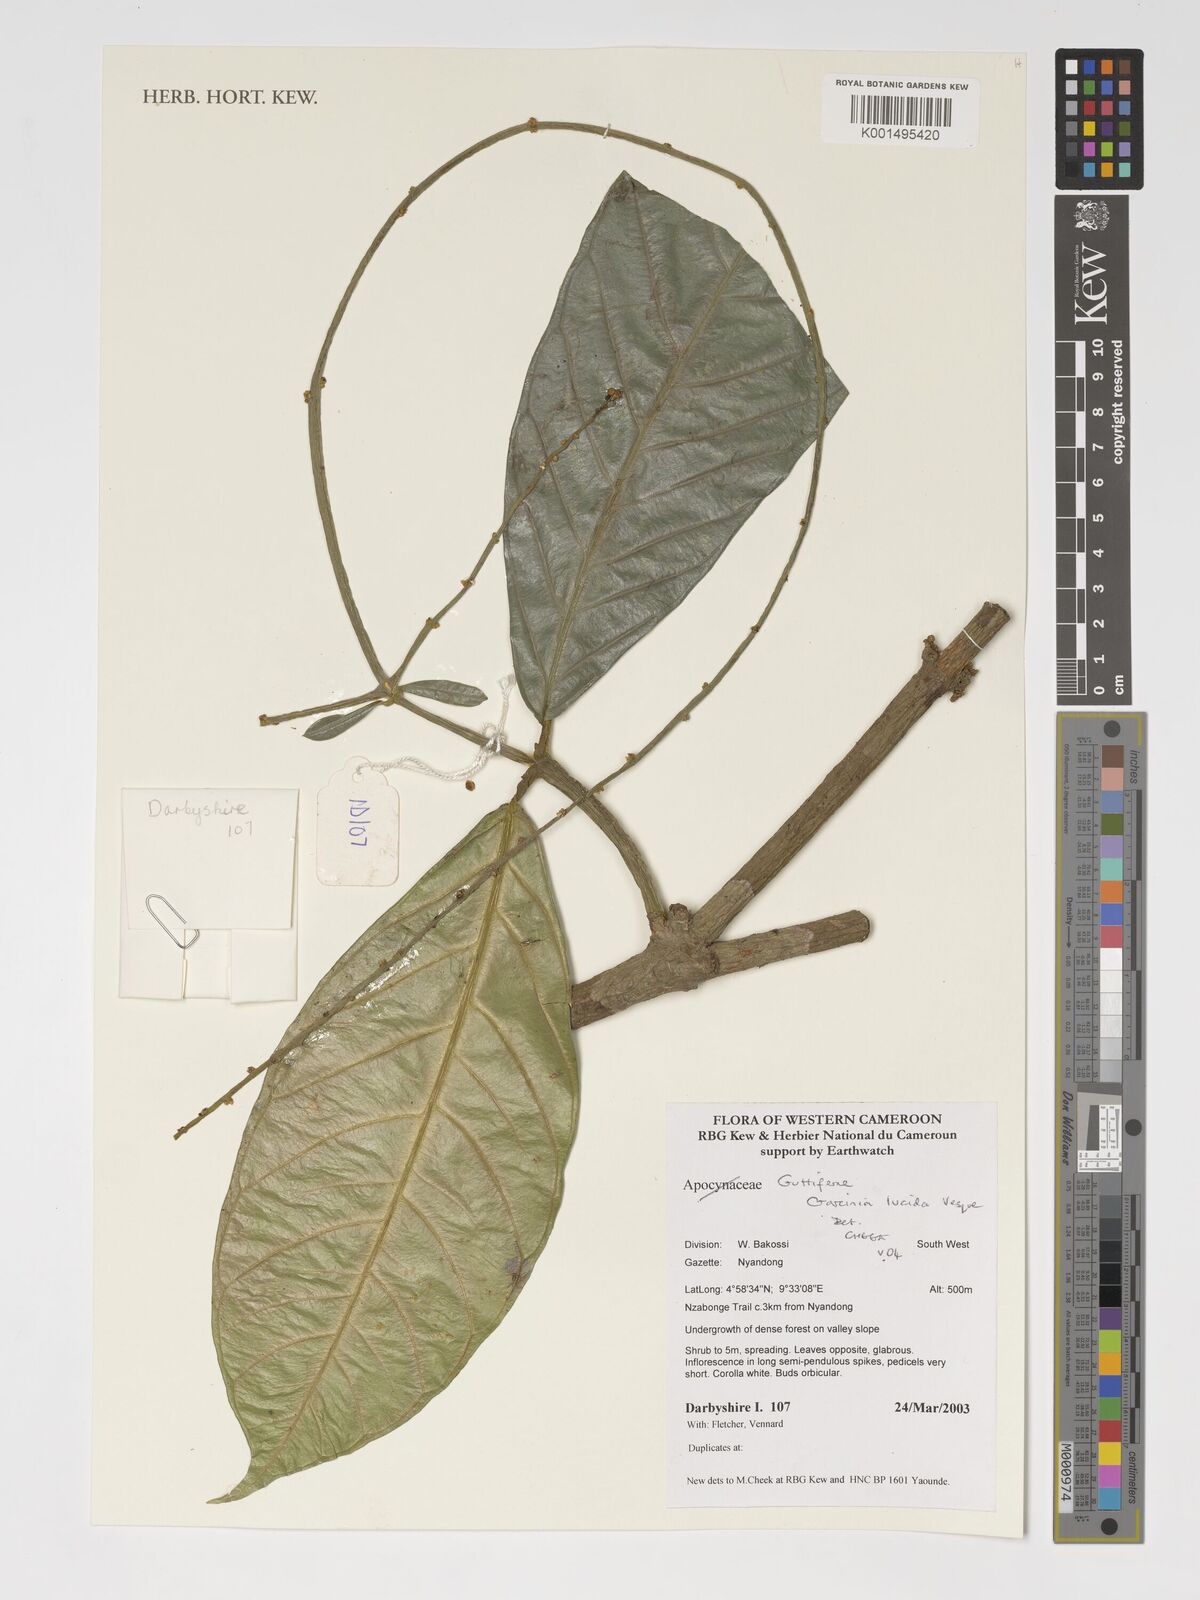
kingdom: Plantae
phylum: Tracheophyta
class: Magnoliopsida
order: Malpighiales
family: Clusiaceae
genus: Garcinia
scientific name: Garcinia lucida
